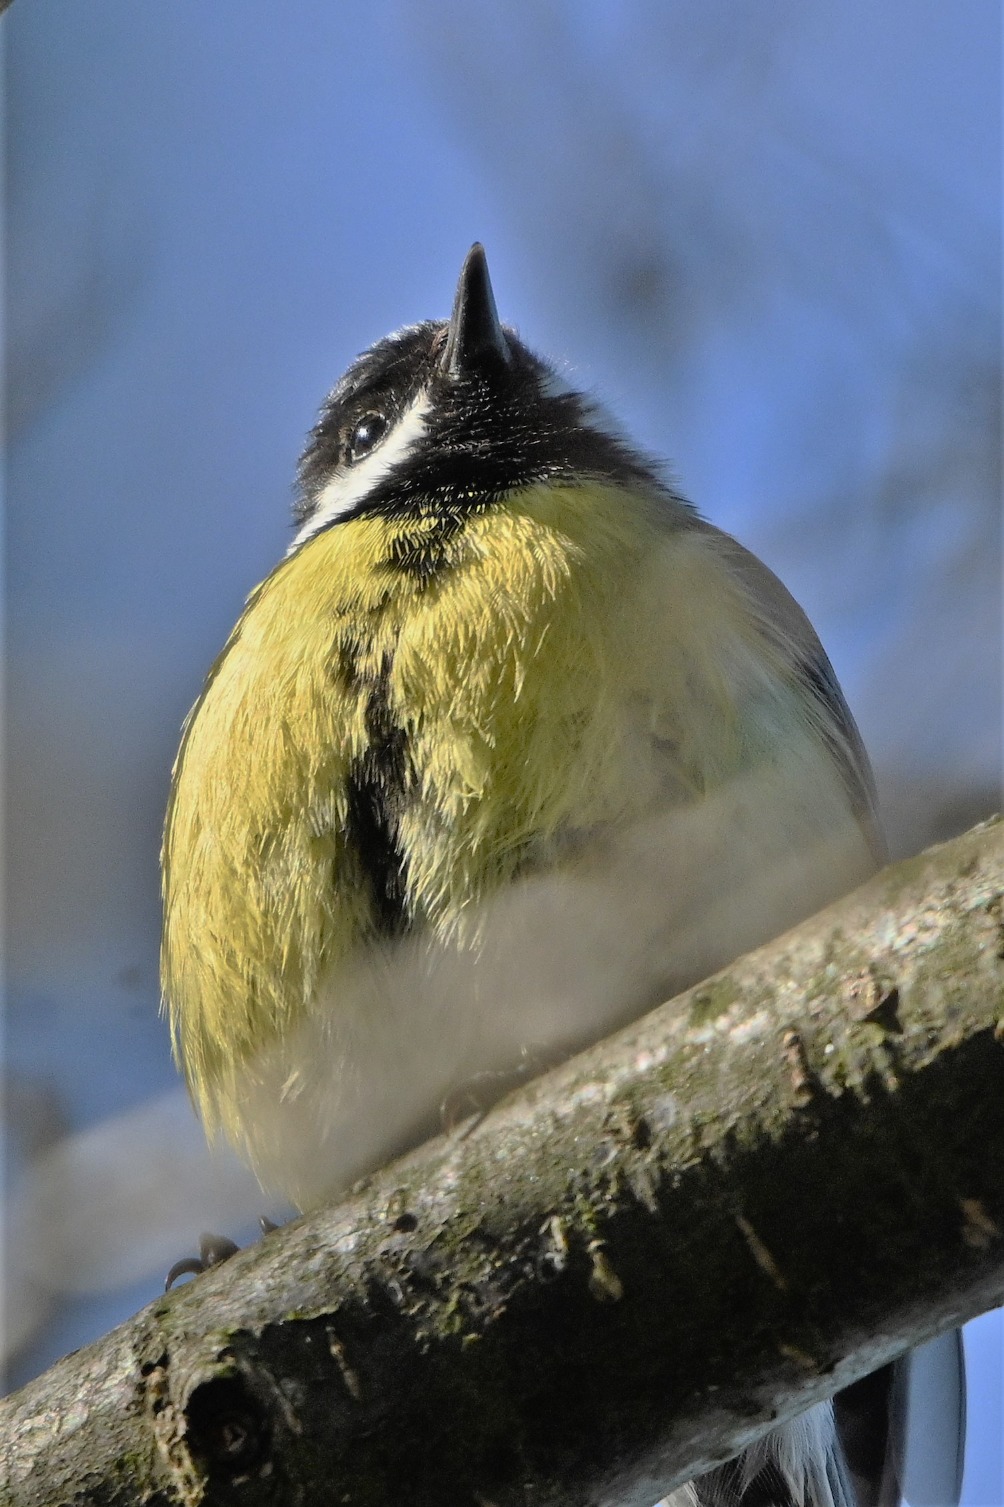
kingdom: Animalia
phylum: Chordata
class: Aves
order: Passeriformes
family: Paridae
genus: Parus
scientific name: Parus major
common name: Musvit
